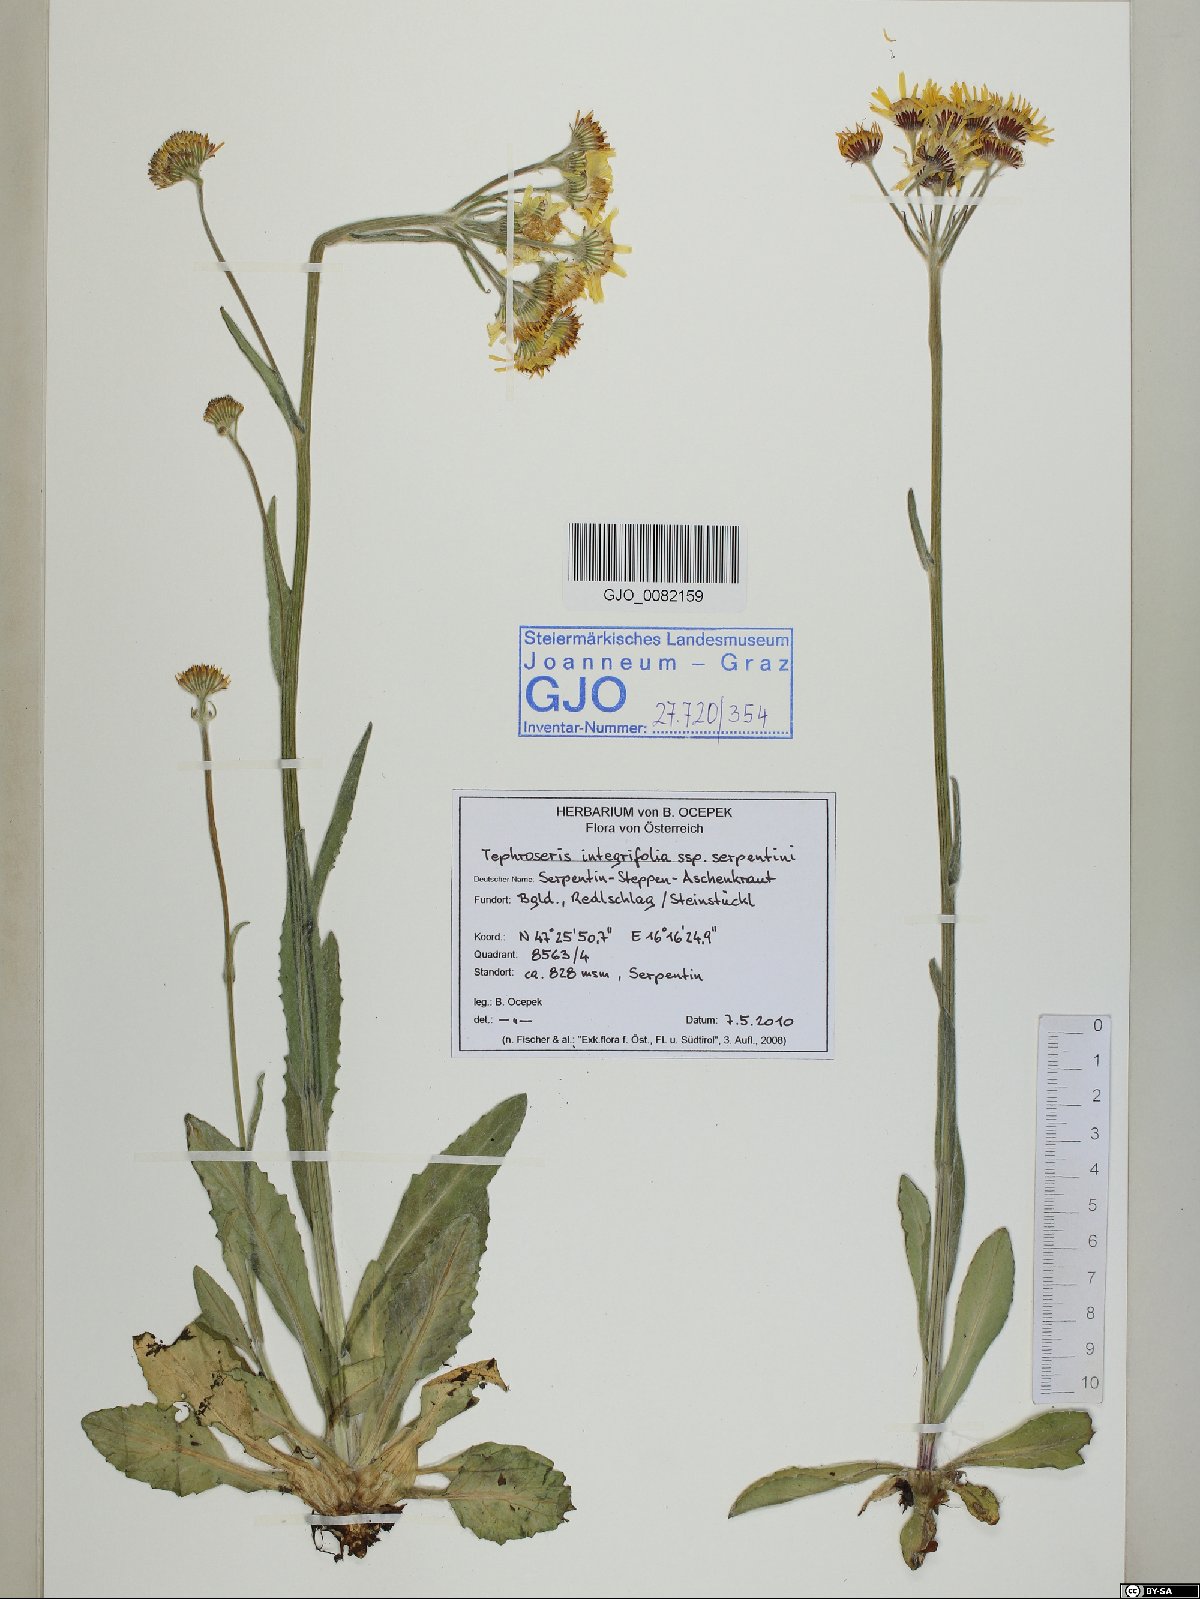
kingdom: Plantae
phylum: Tracheophyta
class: Magnoliopsida
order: Asterales
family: Asteraceae
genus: Tephroseris
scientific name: Tephroseris integrifolia
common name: Field fleawort
